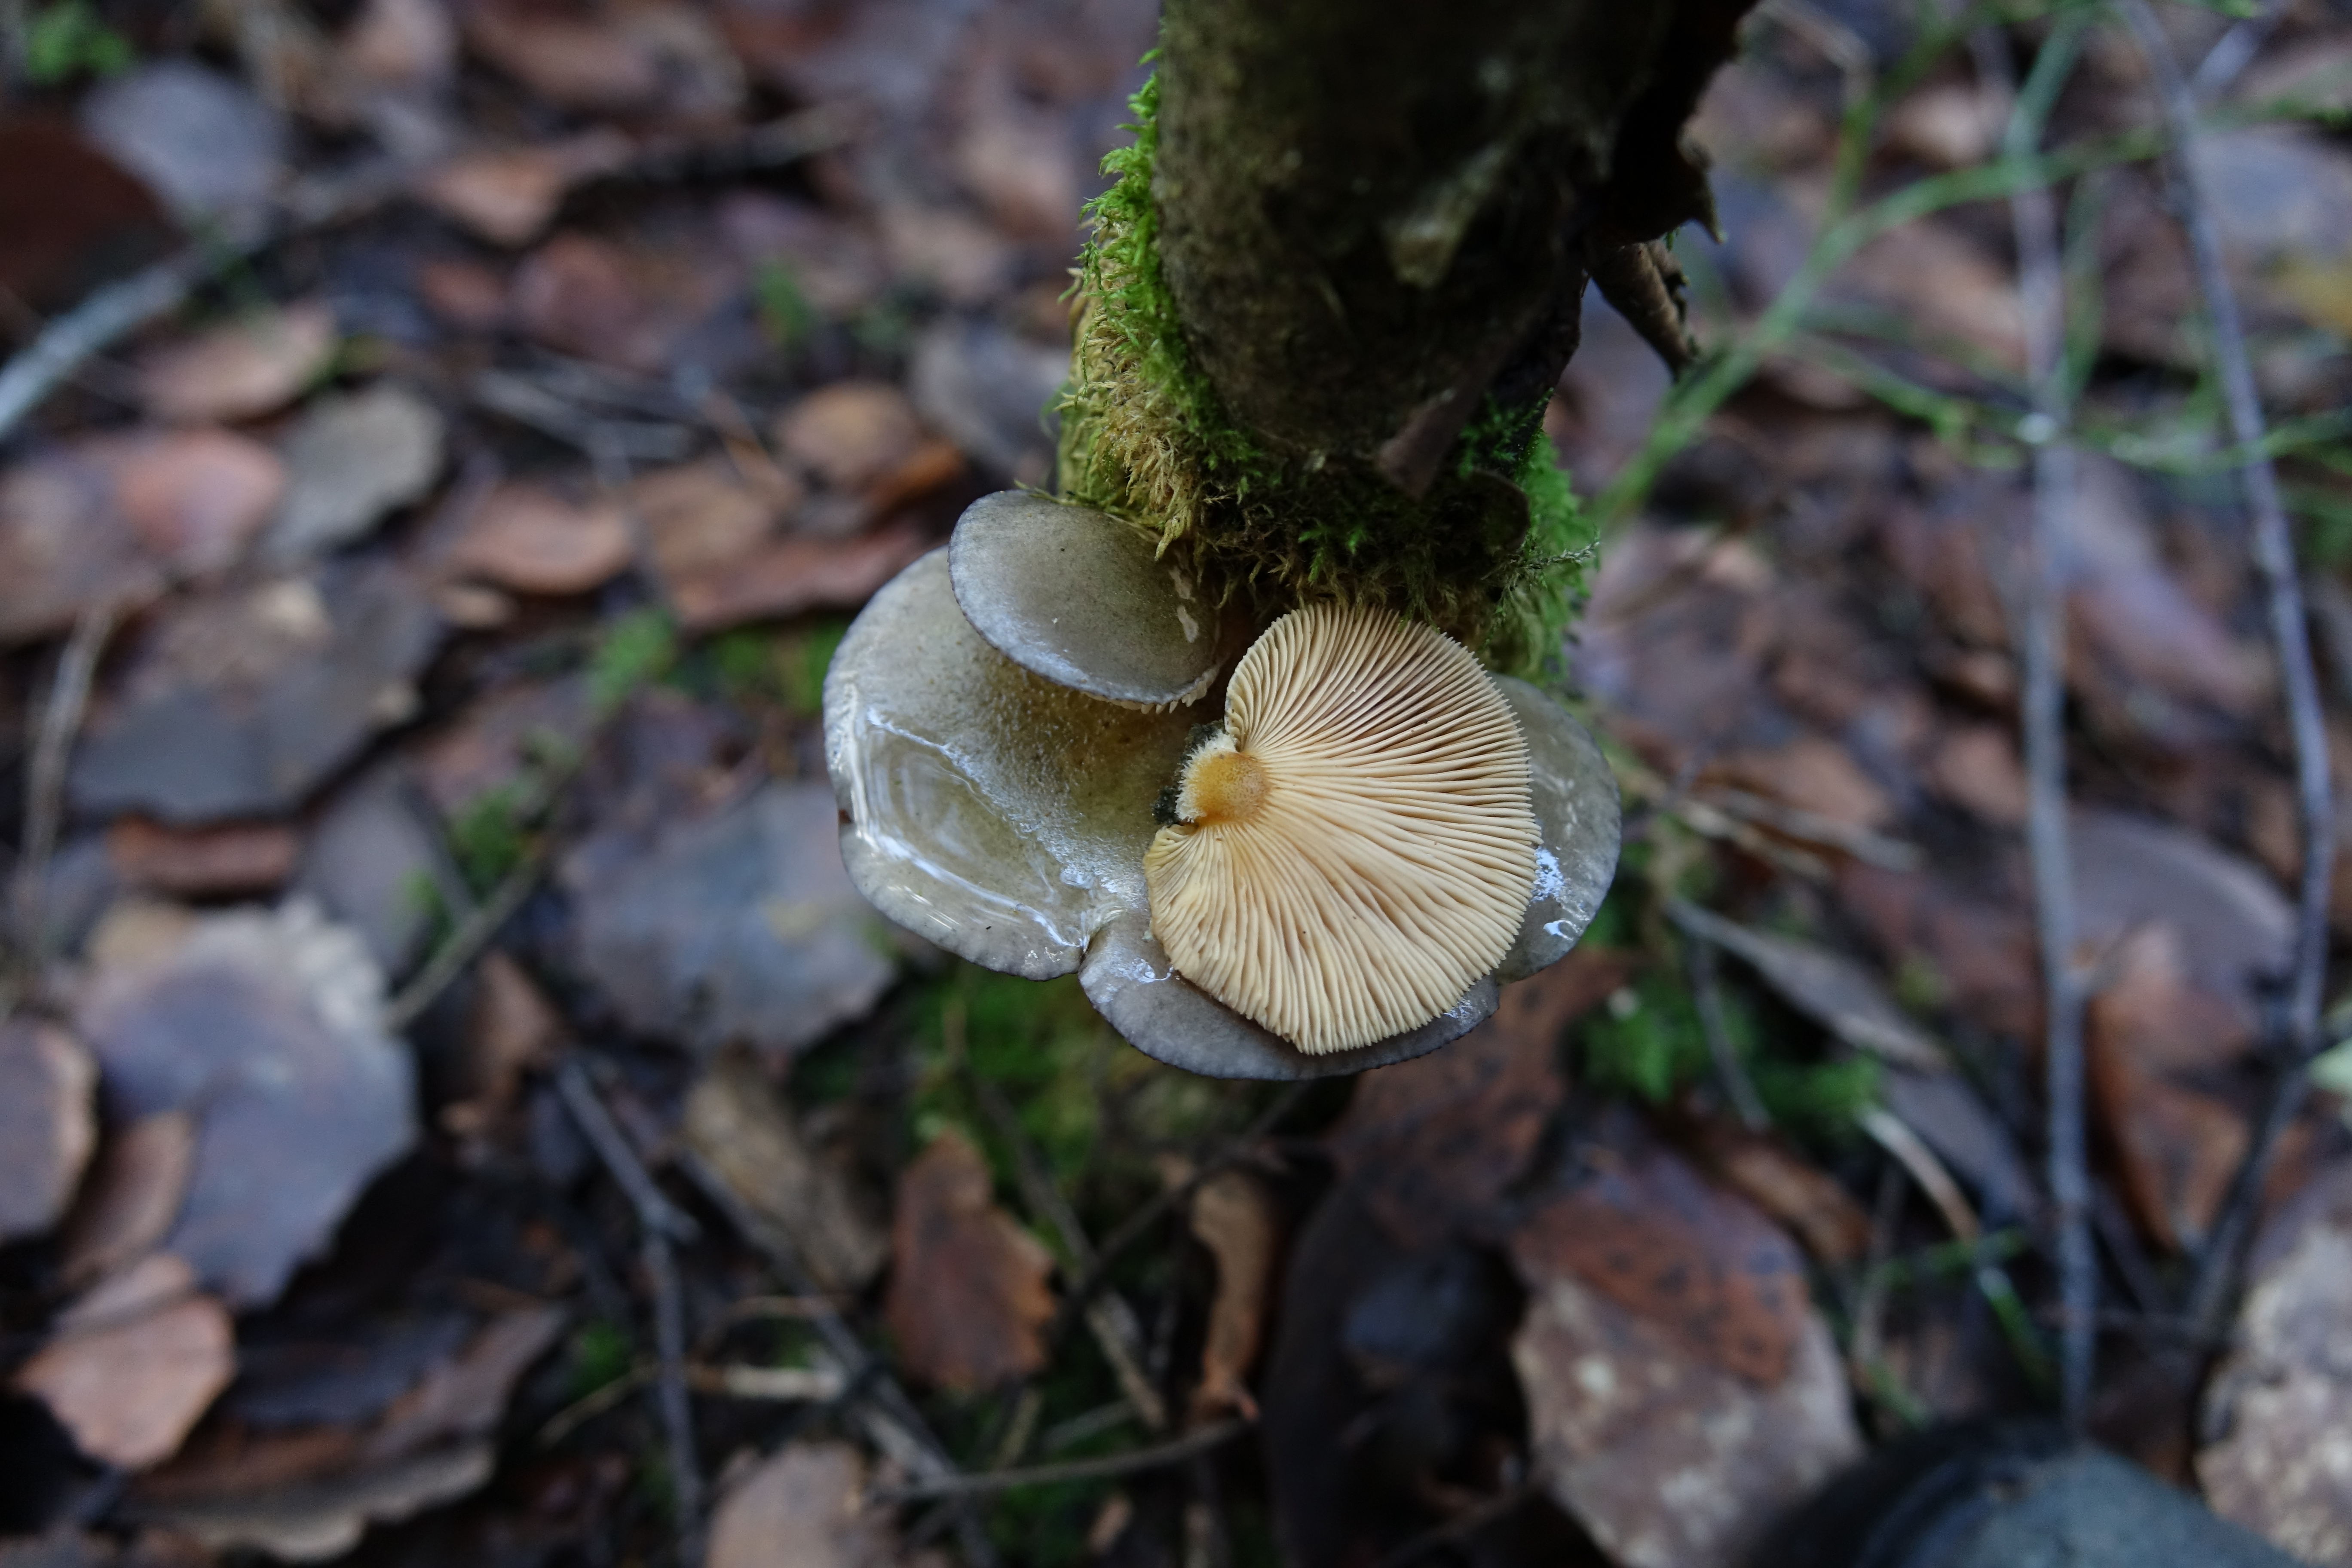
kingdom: Fungi
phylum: Basidiomycota
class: Agaricomycetes
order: Agaricales
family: Sarcomyxaceae
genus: Sarcomyxa
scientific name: Sarcomyxa serotina
